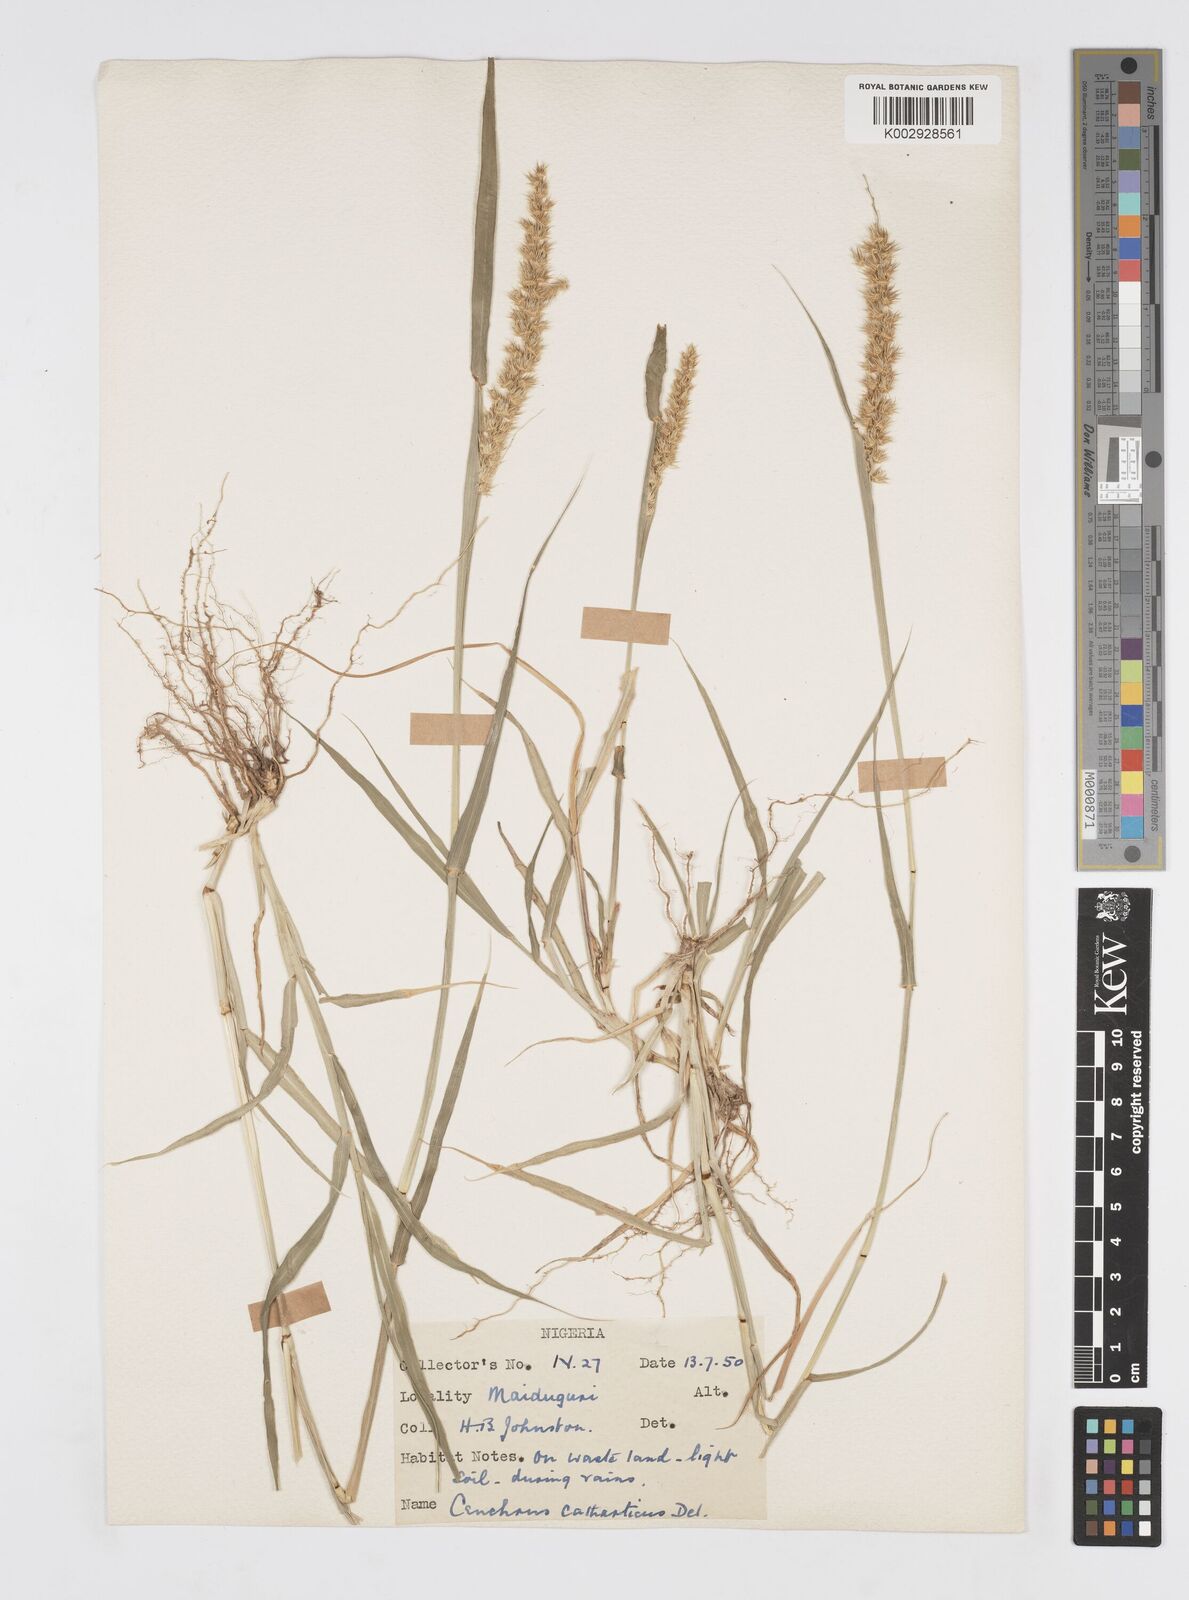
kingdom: Plantae
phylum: Tracheophyta
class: Liliopsida
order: Poales
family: Poaceae
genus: Cenchrus
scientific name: Cenchrus biflorus
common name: Indian sandbur
